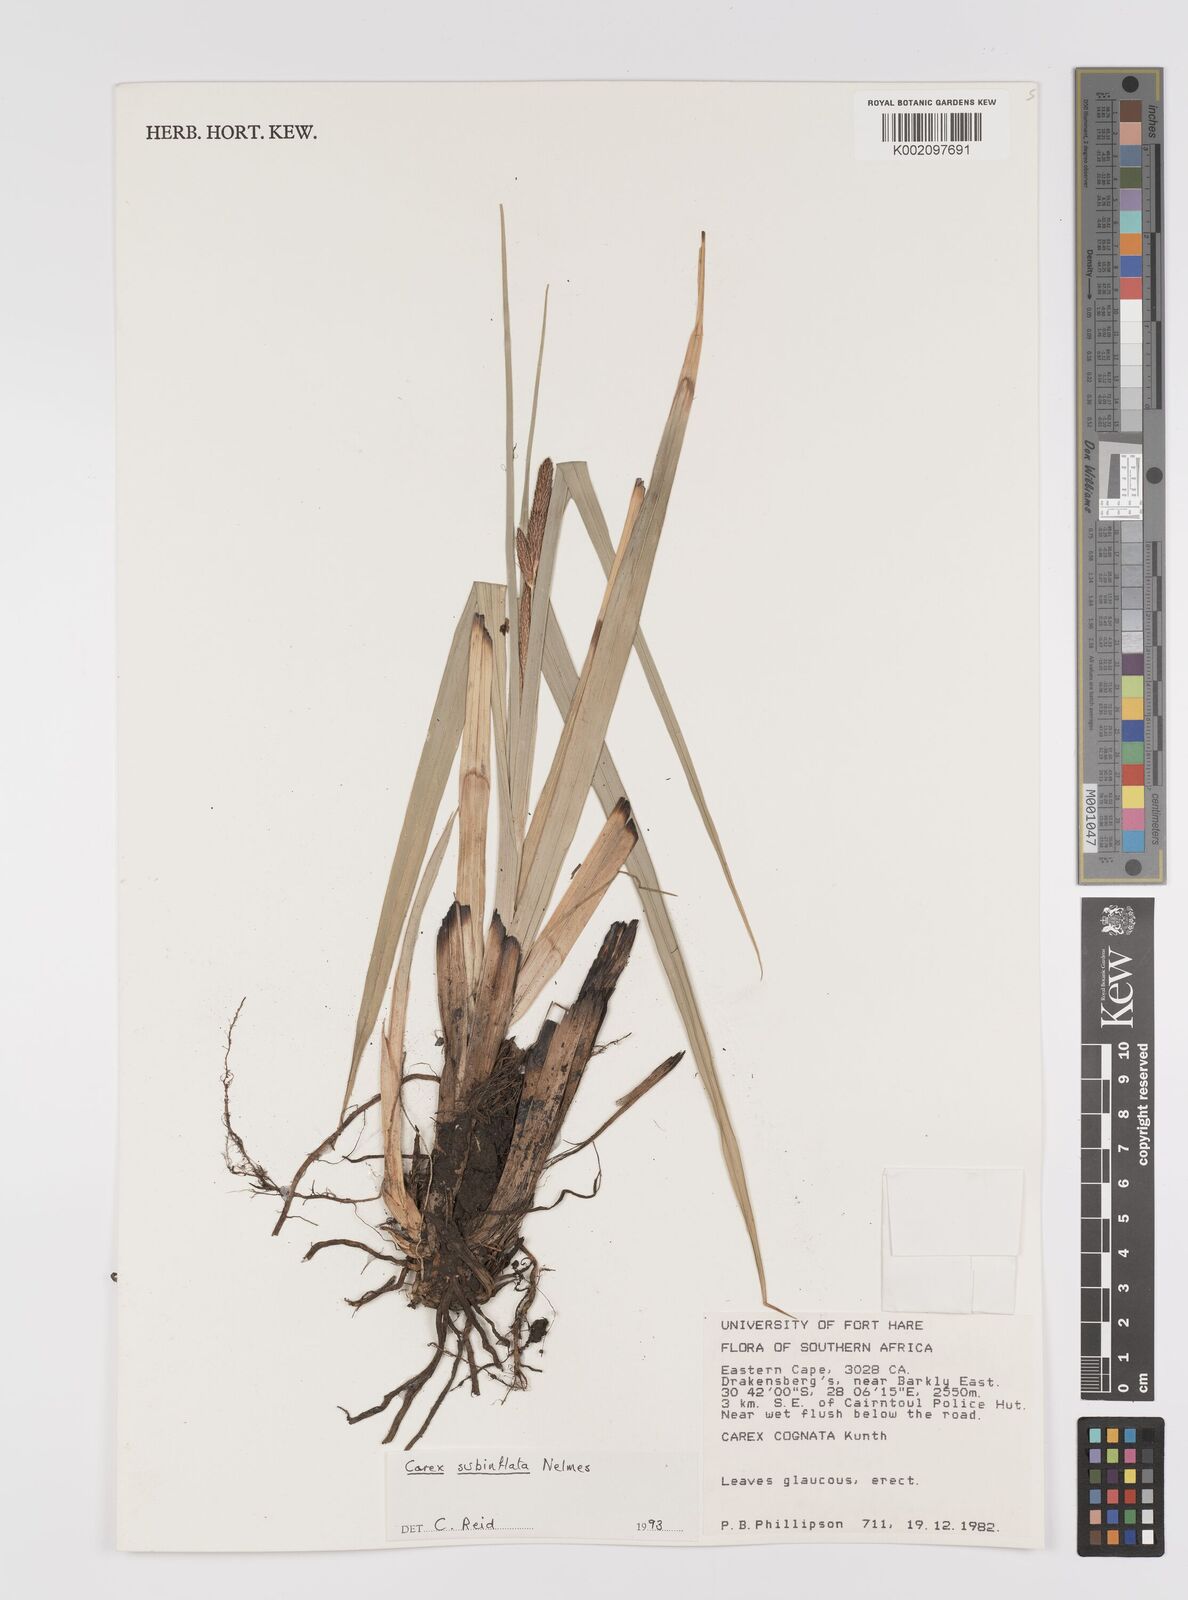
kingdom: Plantae
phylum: Tracheophyta
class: Liliopsida
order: Poales
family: Cyperaceae
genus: Carex
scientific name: Carex subinflata
